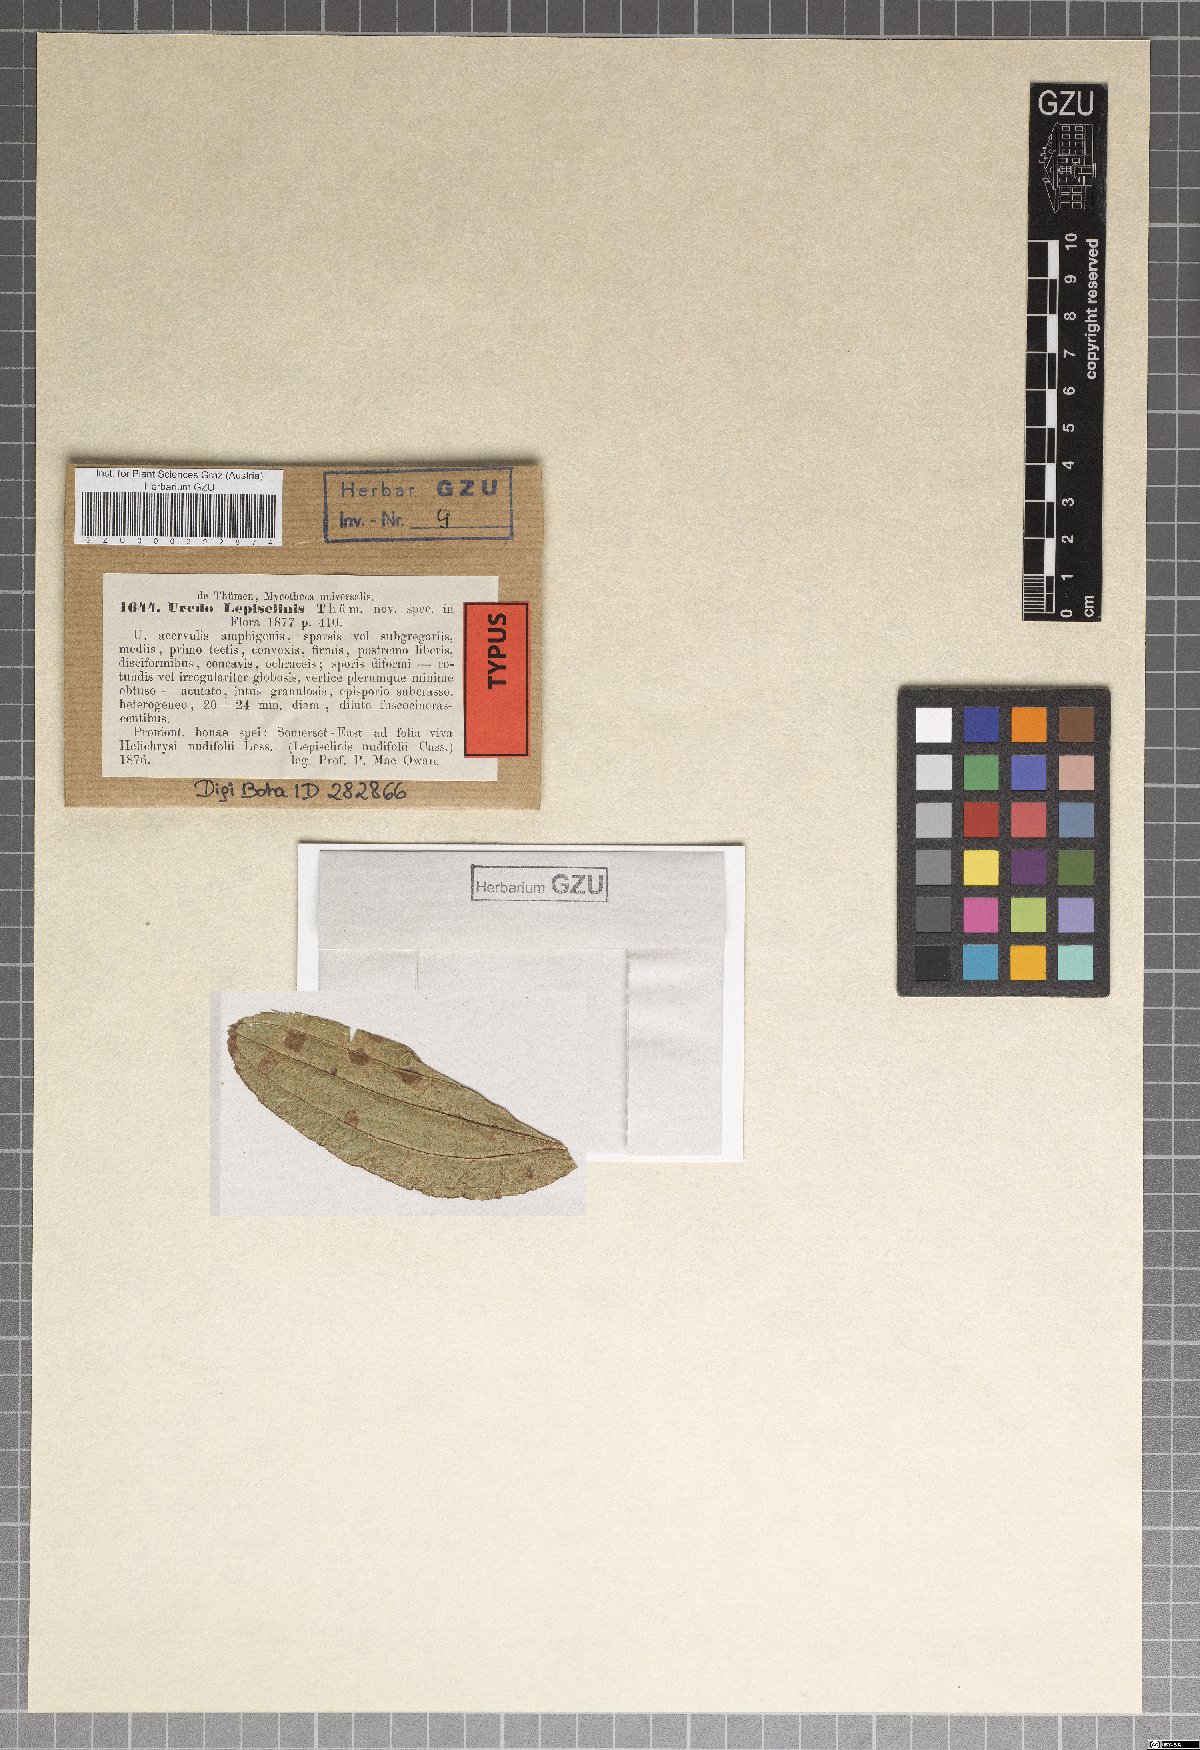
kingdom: Plantae
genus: Uredo
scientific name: Uredo
